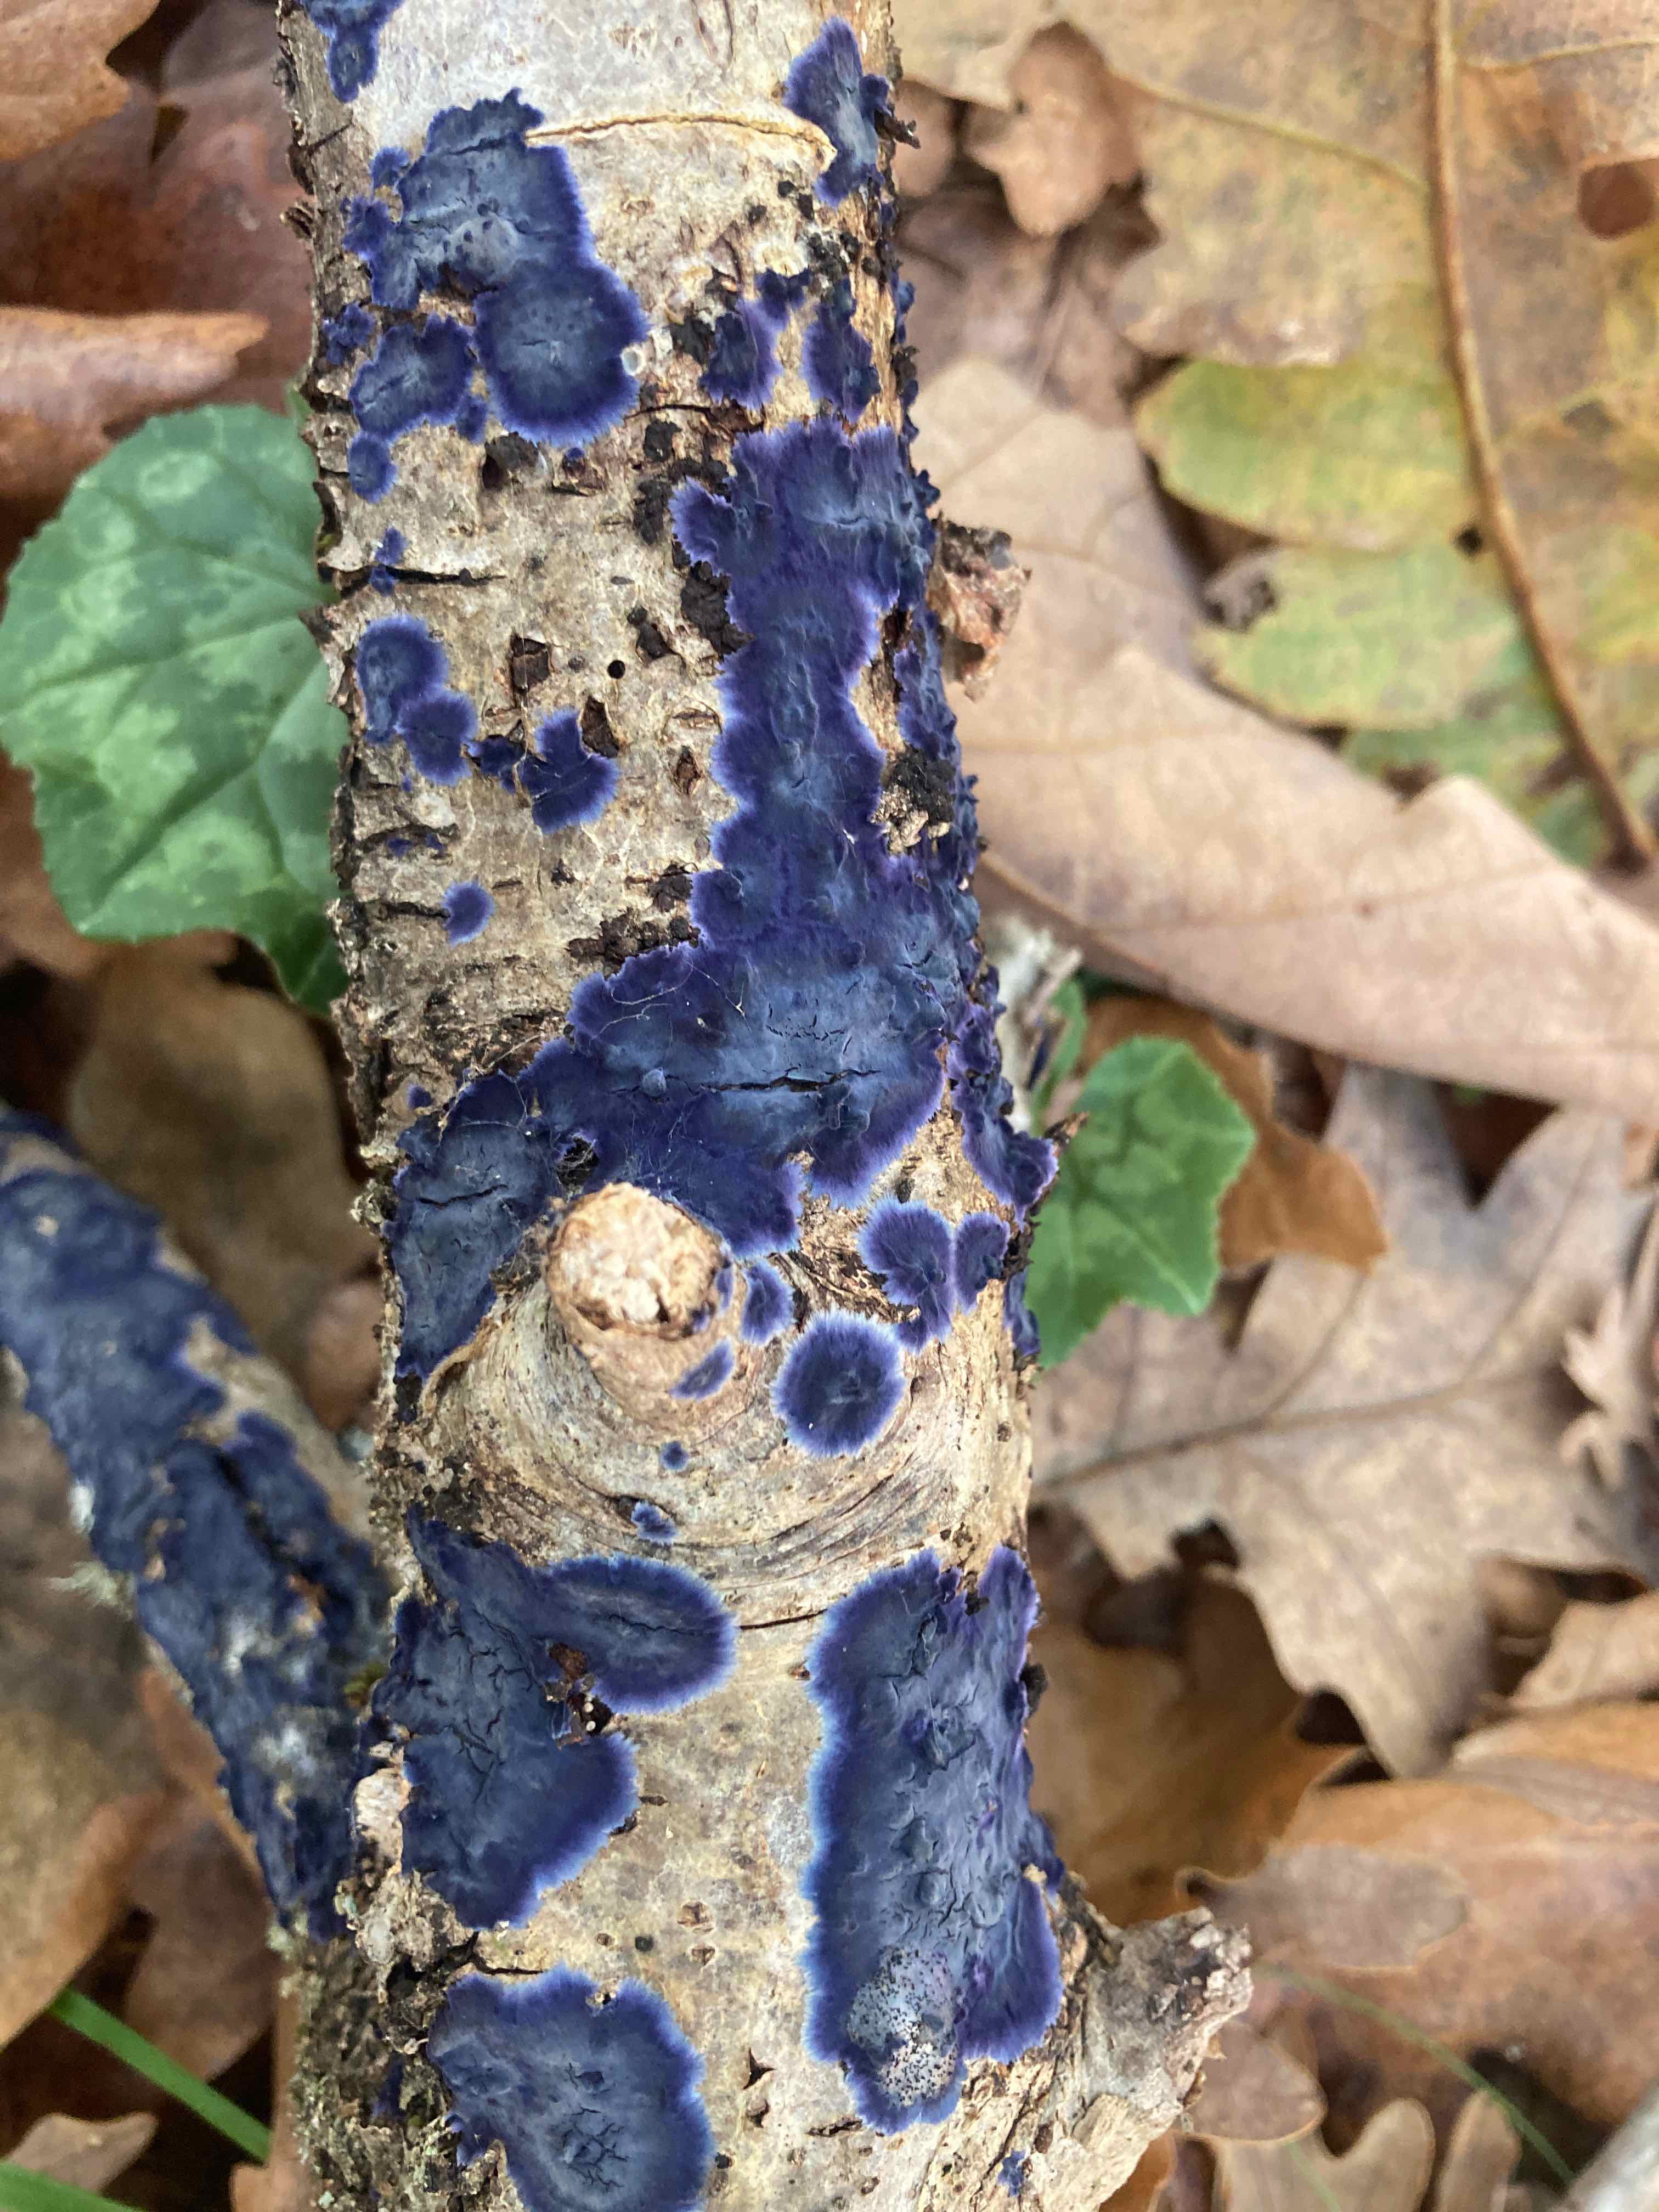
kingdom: Fungi
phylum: Basidiomycota
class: Agaricomycetes
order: Polyporales
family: Phanerochaetaceae
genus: Terana
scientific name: Terana caerulea
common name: indigoskorpe
